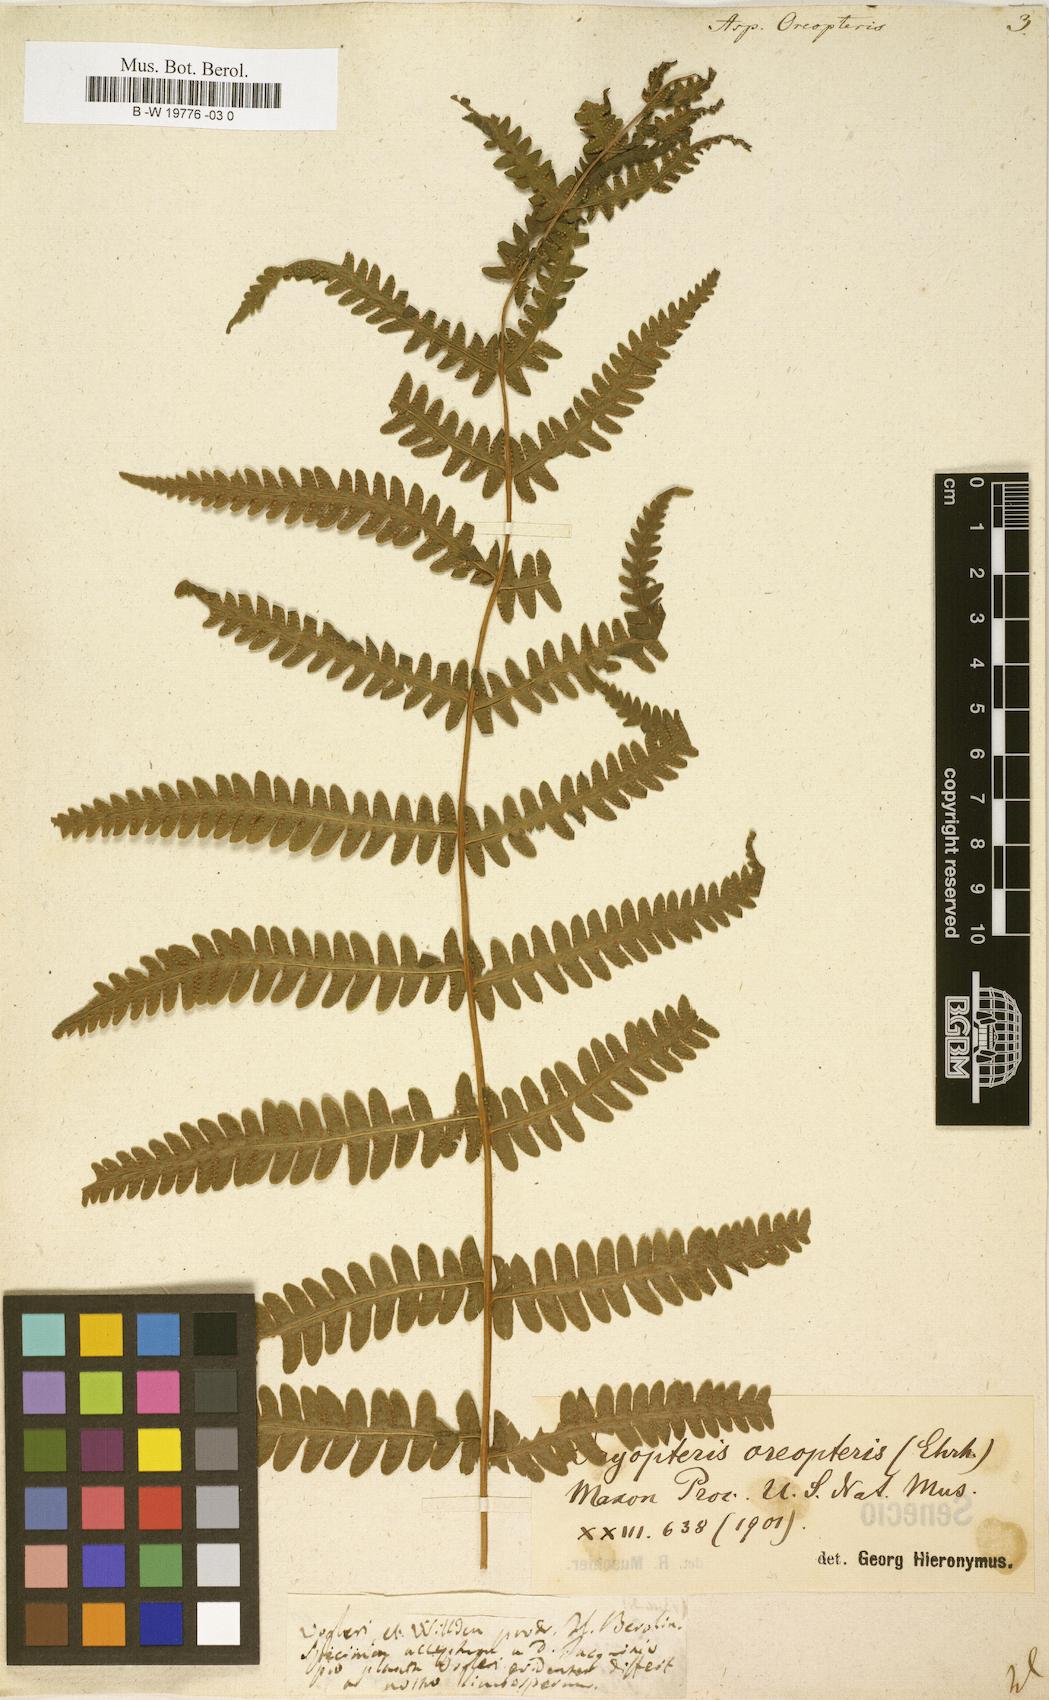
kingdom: Plantae
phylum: Tracheophyta
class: Polypodiopsida
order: Polypodiales
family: Thelypteridaceae
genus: Oreopteris
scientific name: Oreopteris limbosperma
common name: Lemon-scented fern
